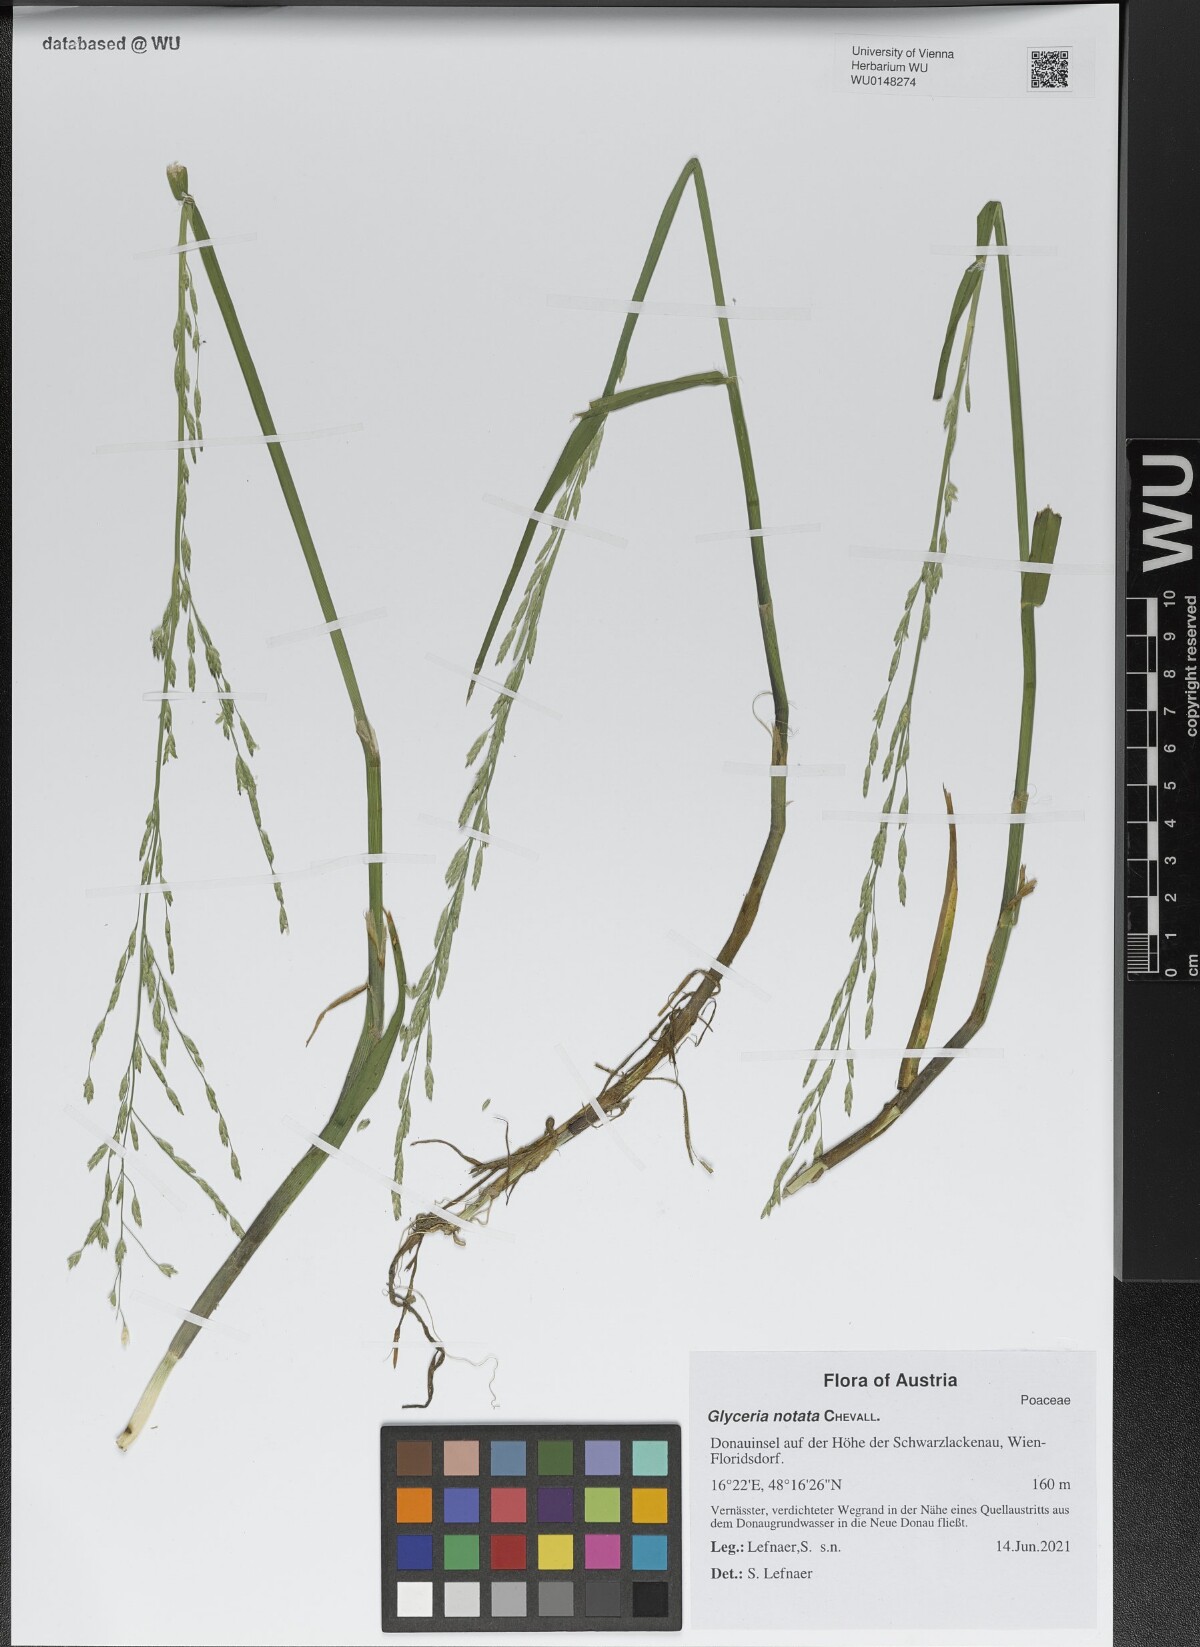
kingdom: Plantae
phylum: Tracheophyta
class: Liliopsida
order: Poales
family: Poaceae
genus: Glyceria
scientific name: Glyceria notata
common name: Plicate sweet-grass
